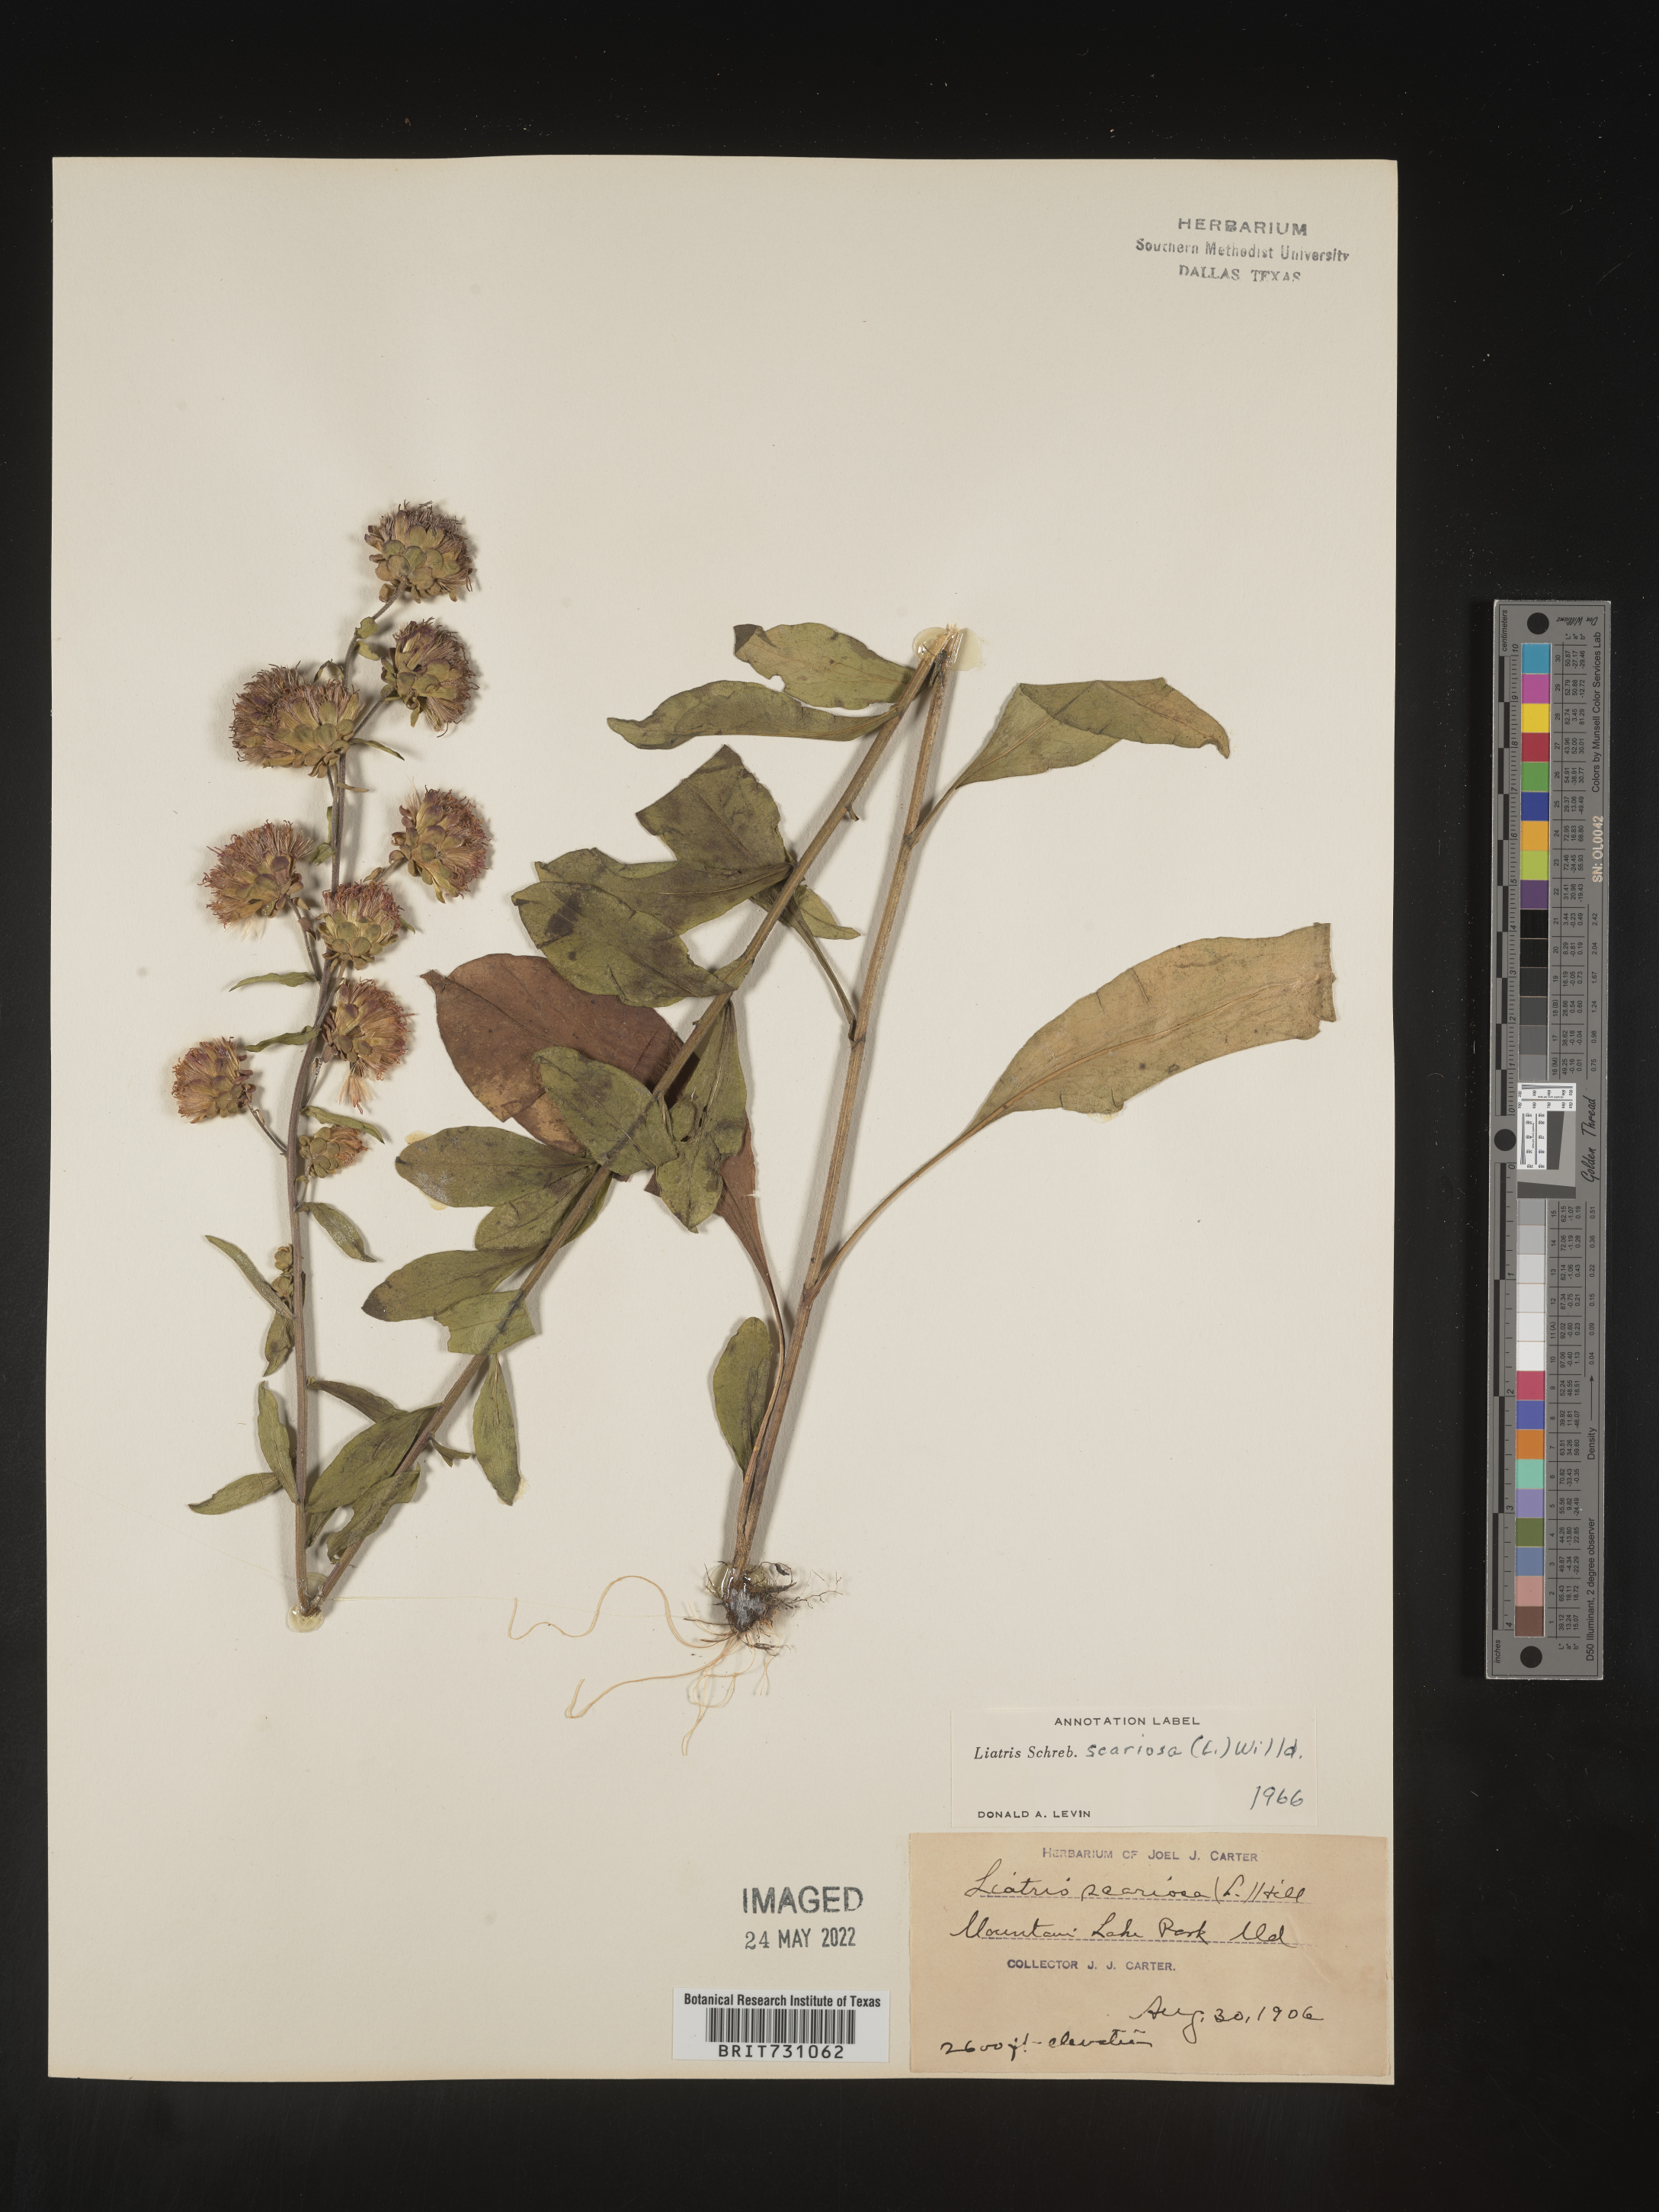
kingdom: Plantae
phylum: Tracheophyta
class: Magnoliopsida
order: Asterales
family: Asteraceae
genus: Liatris
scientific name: Liatris scariosa
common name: Northern gayfeather
